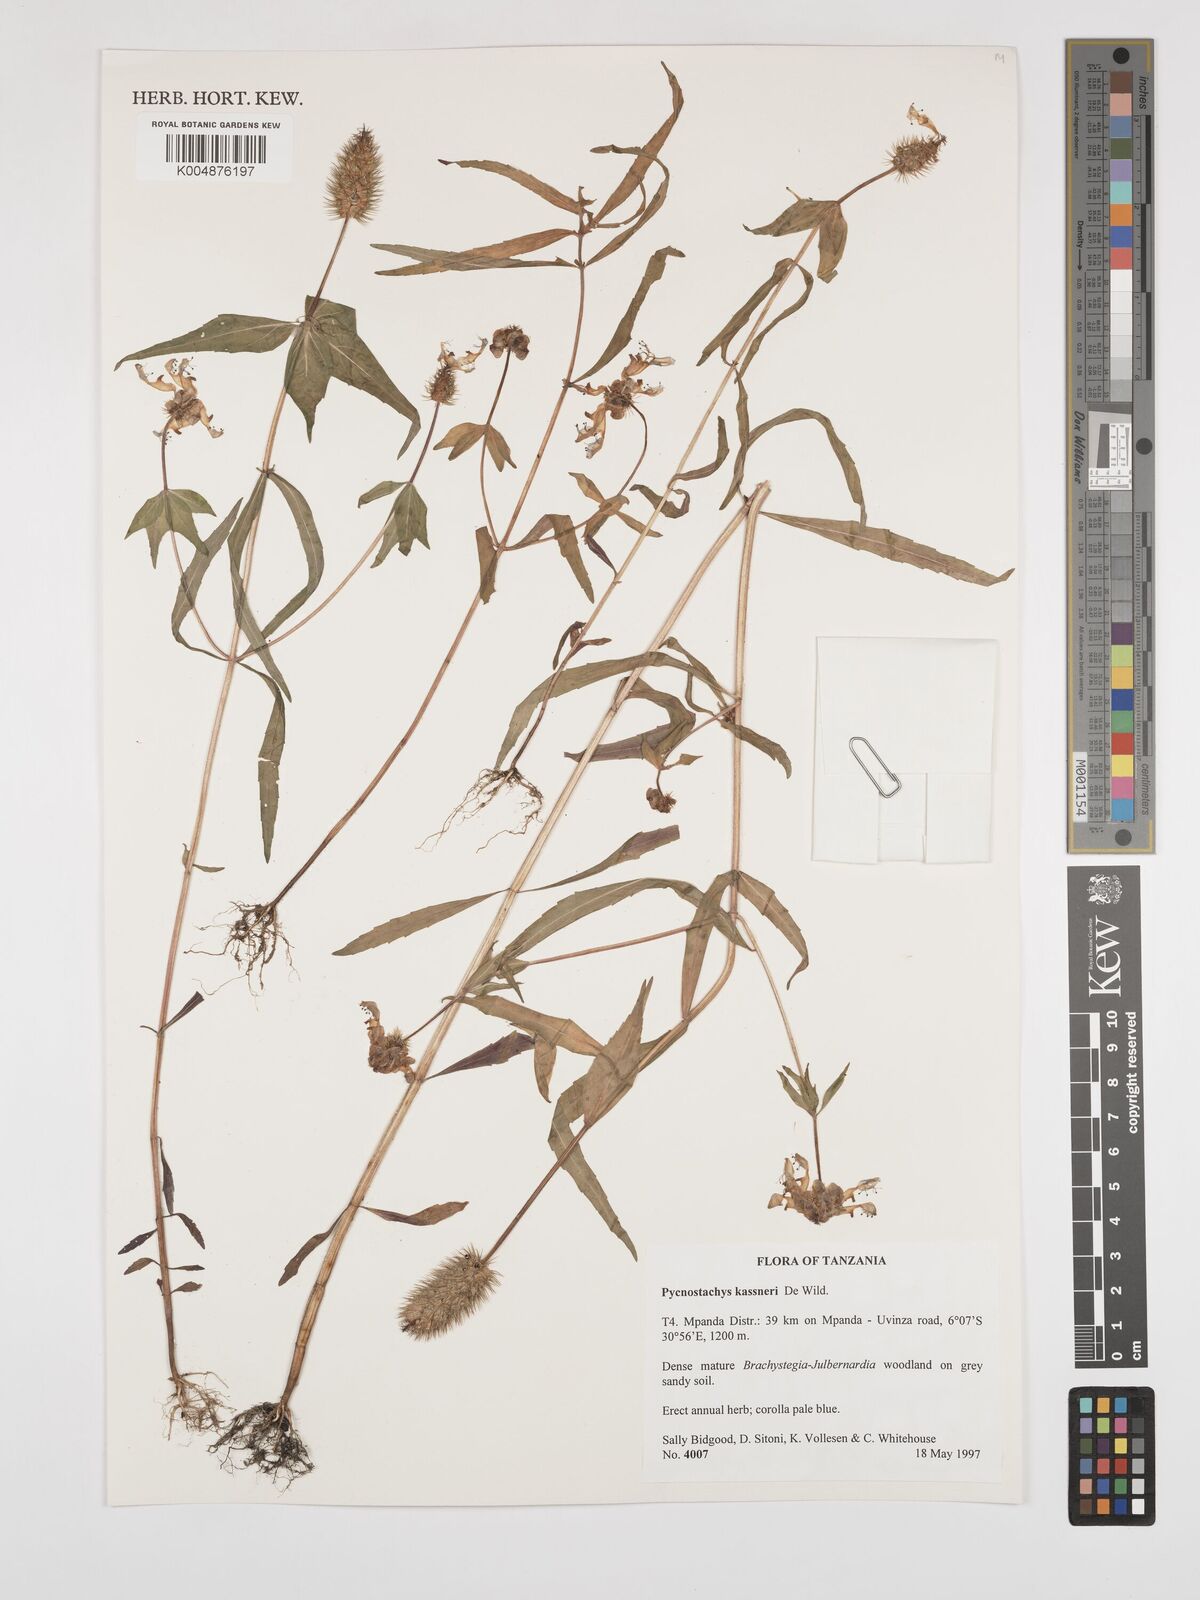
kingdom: Plantae
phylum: Tracheophyta
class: Magnoliopsida
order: Lamiales
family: Lamiaceae
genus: Coleus
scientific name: Coleus scruposus
